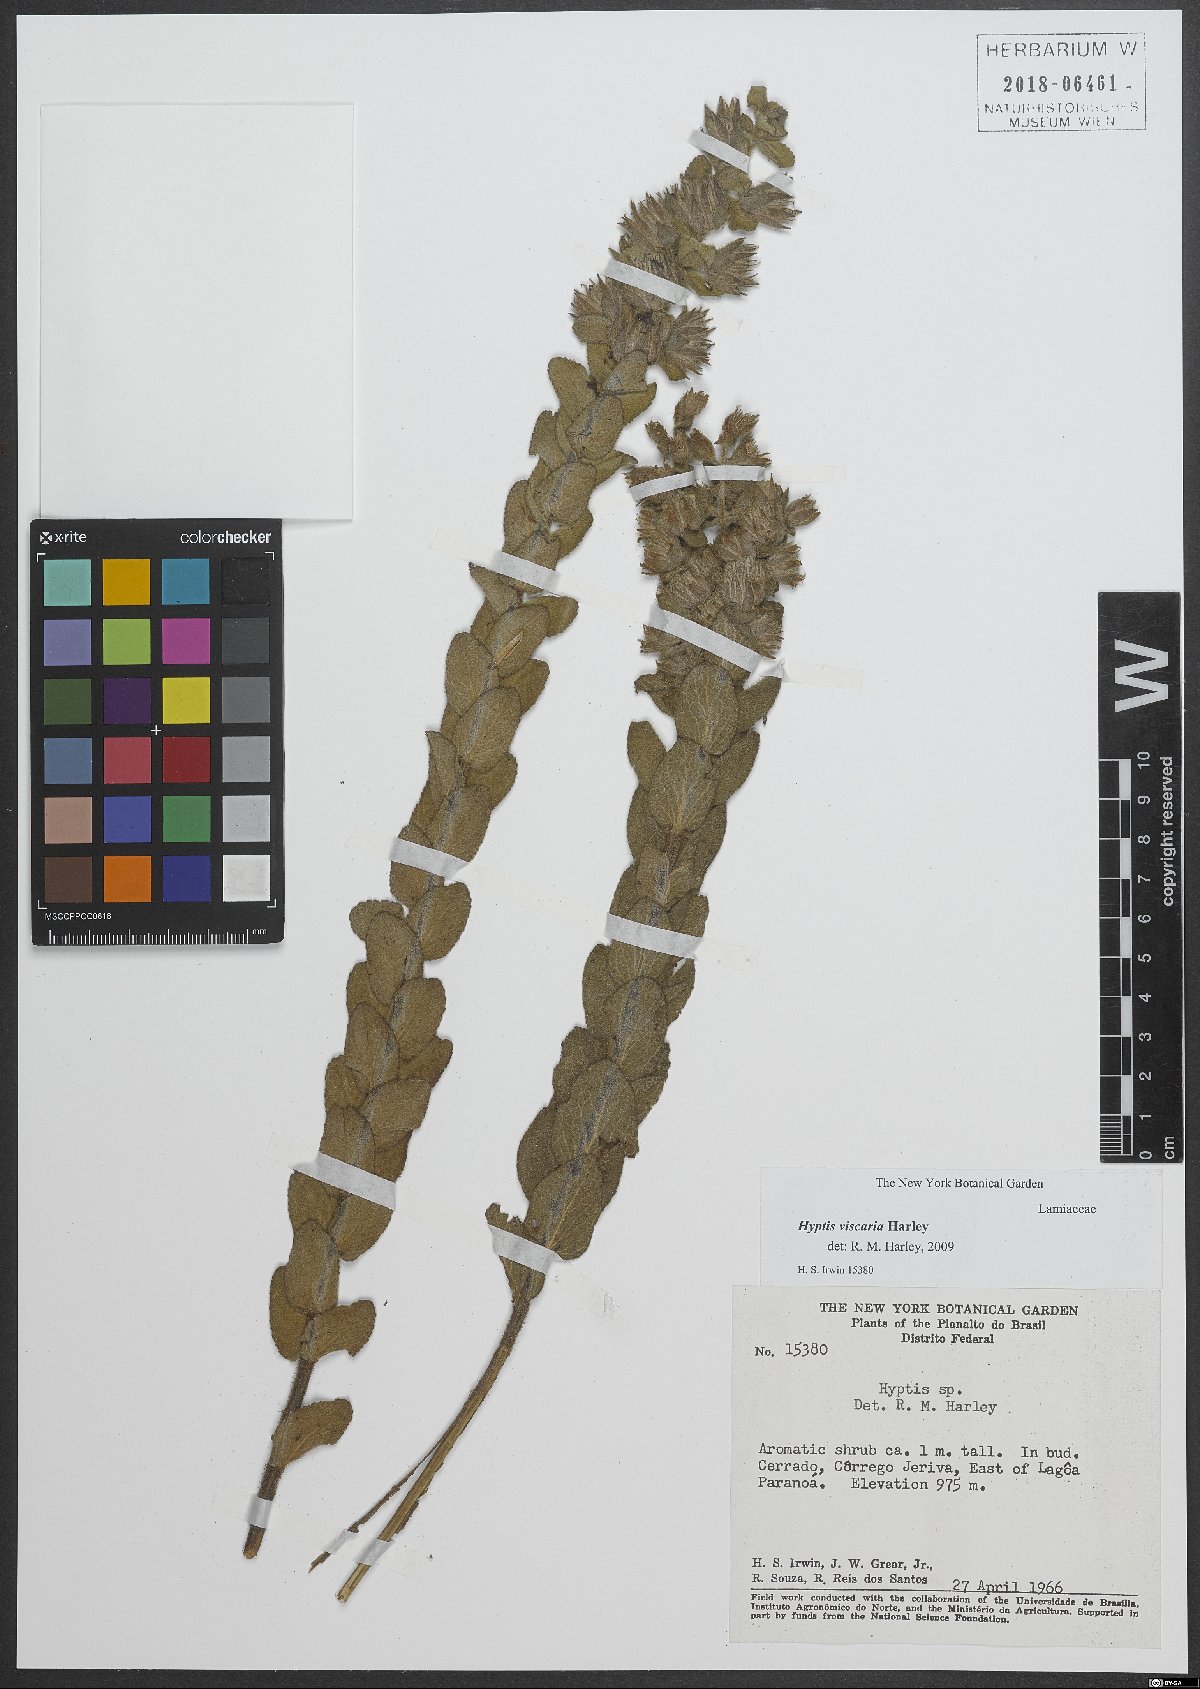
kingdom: Plantae
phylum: Tracheophyta
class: Magnoliopsida
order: Lamiales
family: Lamiaceae
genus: Oocephalus
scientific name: Oocephalus viscaria
